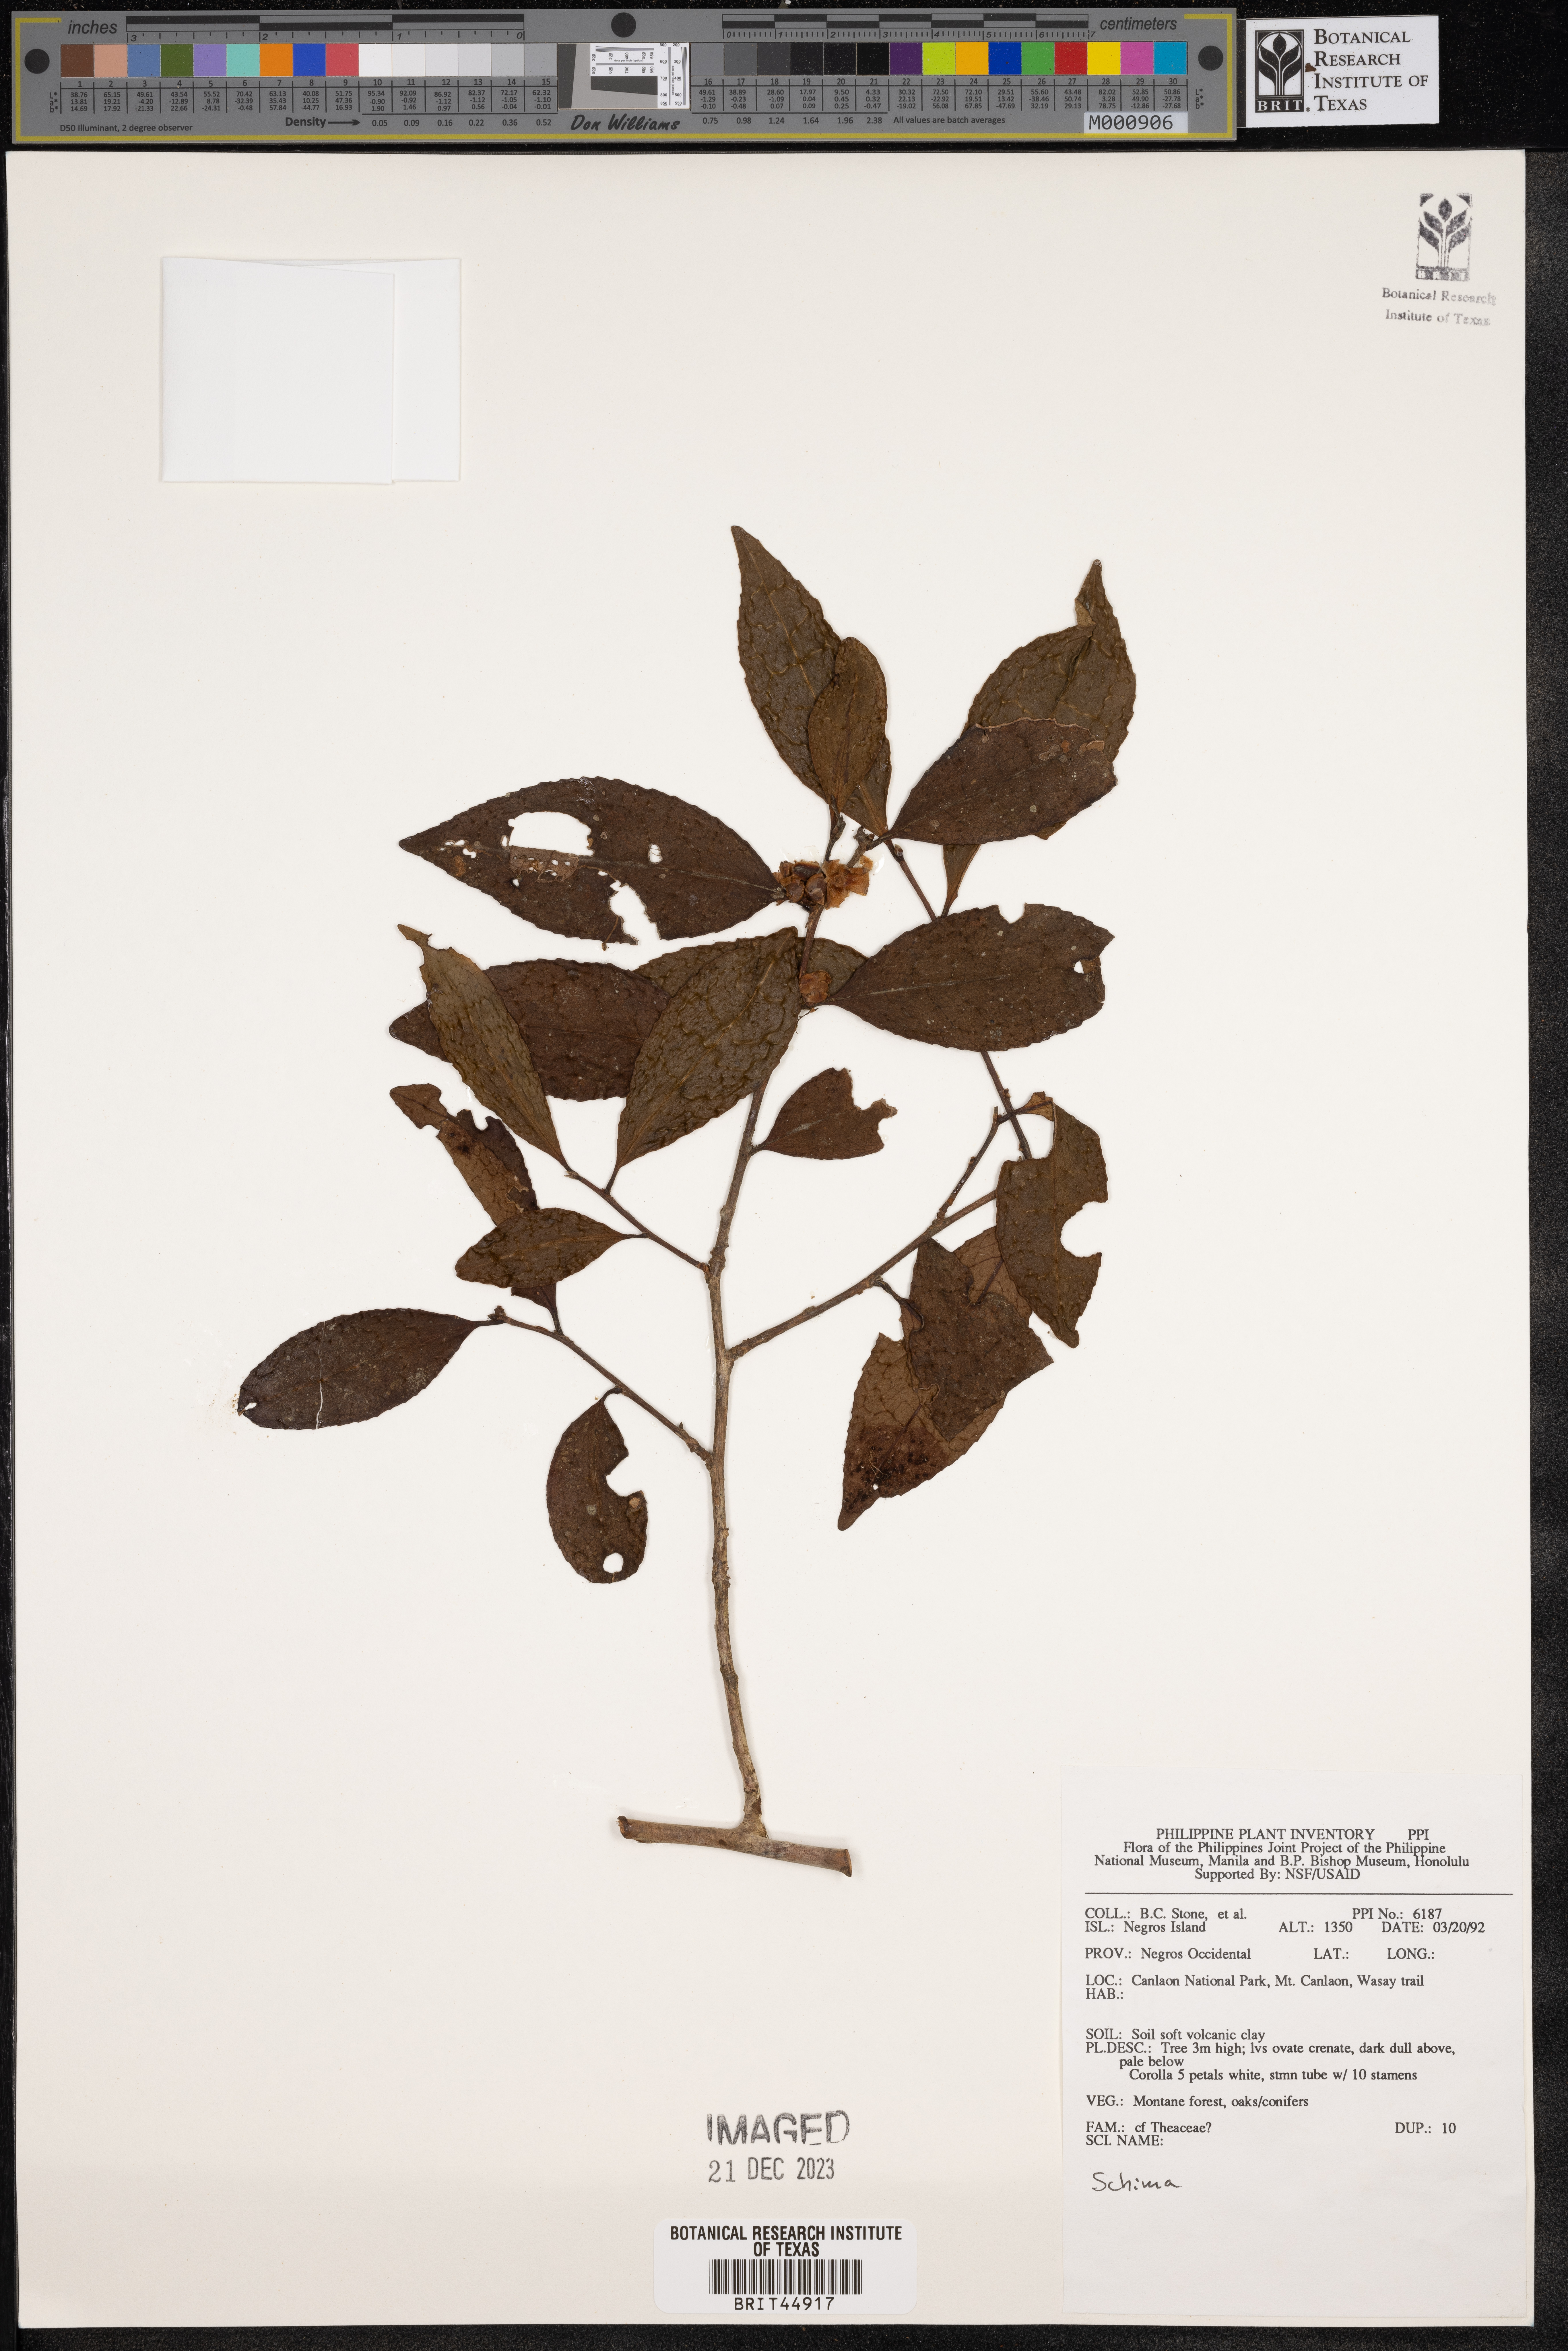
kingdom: Plantae
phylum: Tracheophyta
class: Magnoliopsida
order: Ericales
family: Theaceae
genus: Schima
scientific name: Schima
